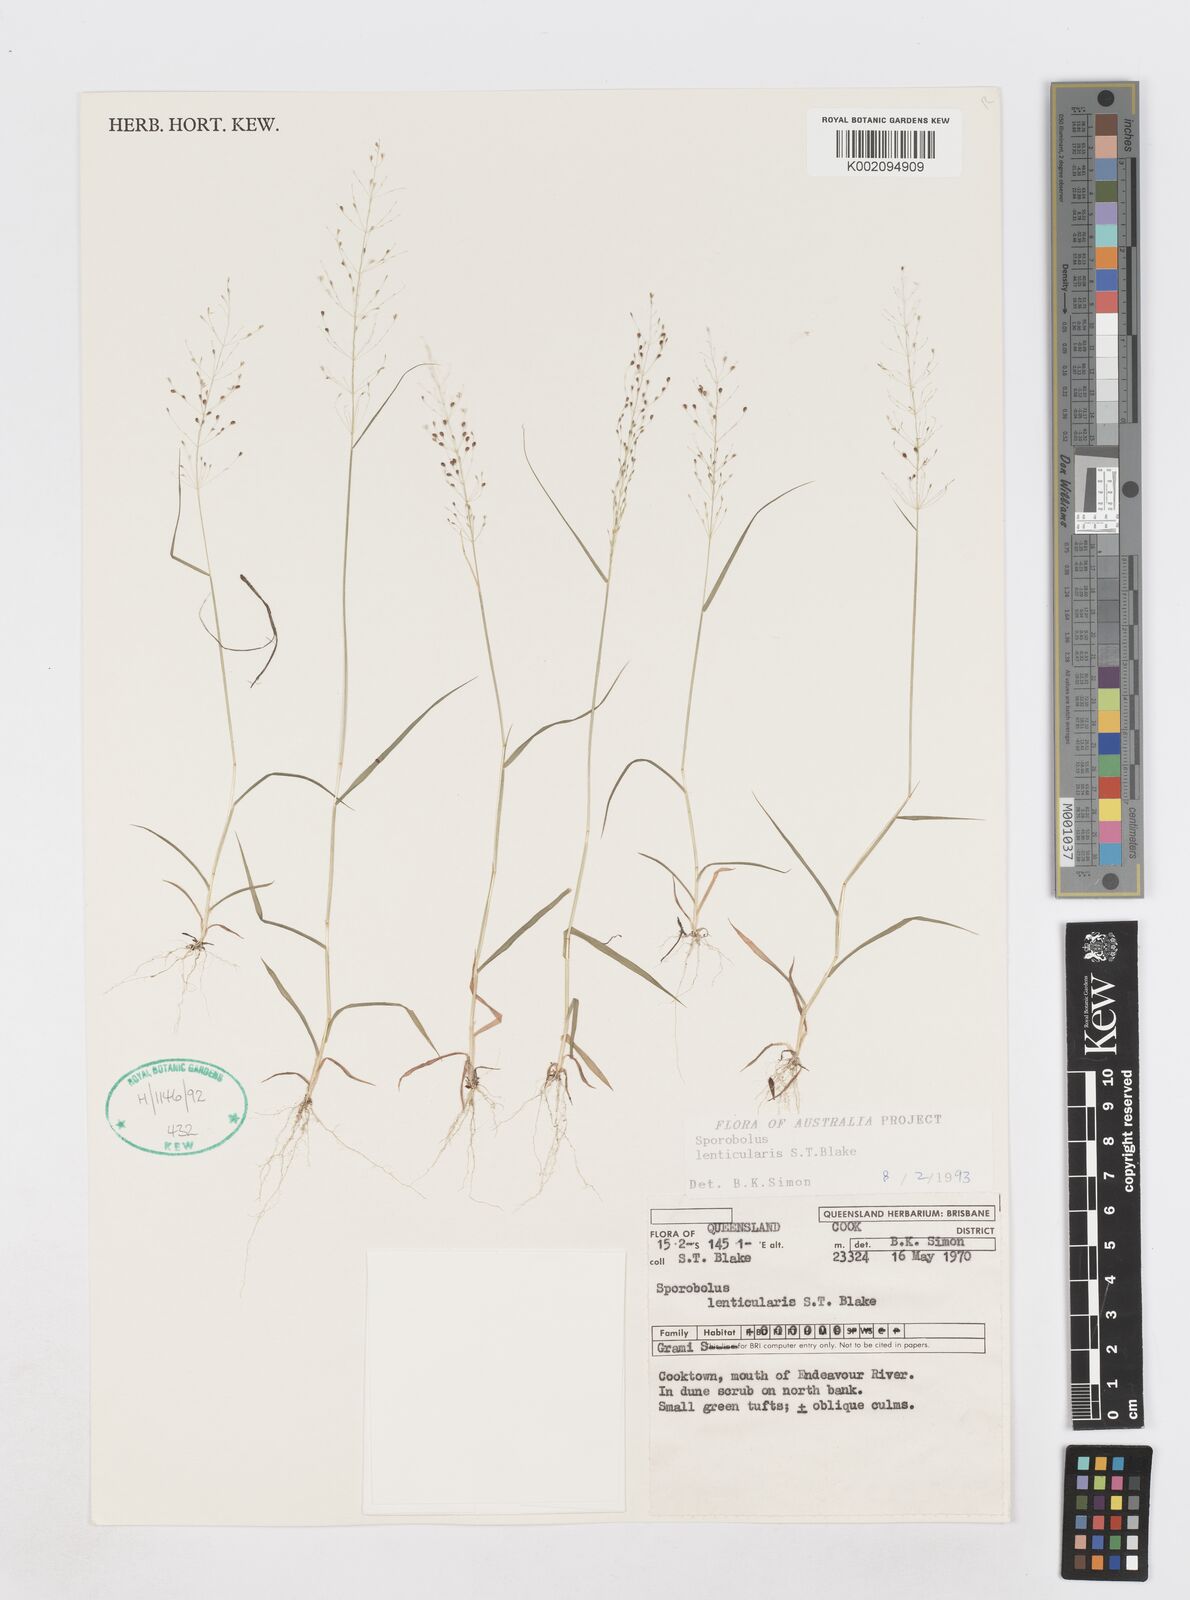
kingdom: Plantae
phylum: Tracheophyta
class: Liliopsida
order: Poales
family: Poaceae
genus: Sporobolus
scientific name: Sporobolus lenticularis
